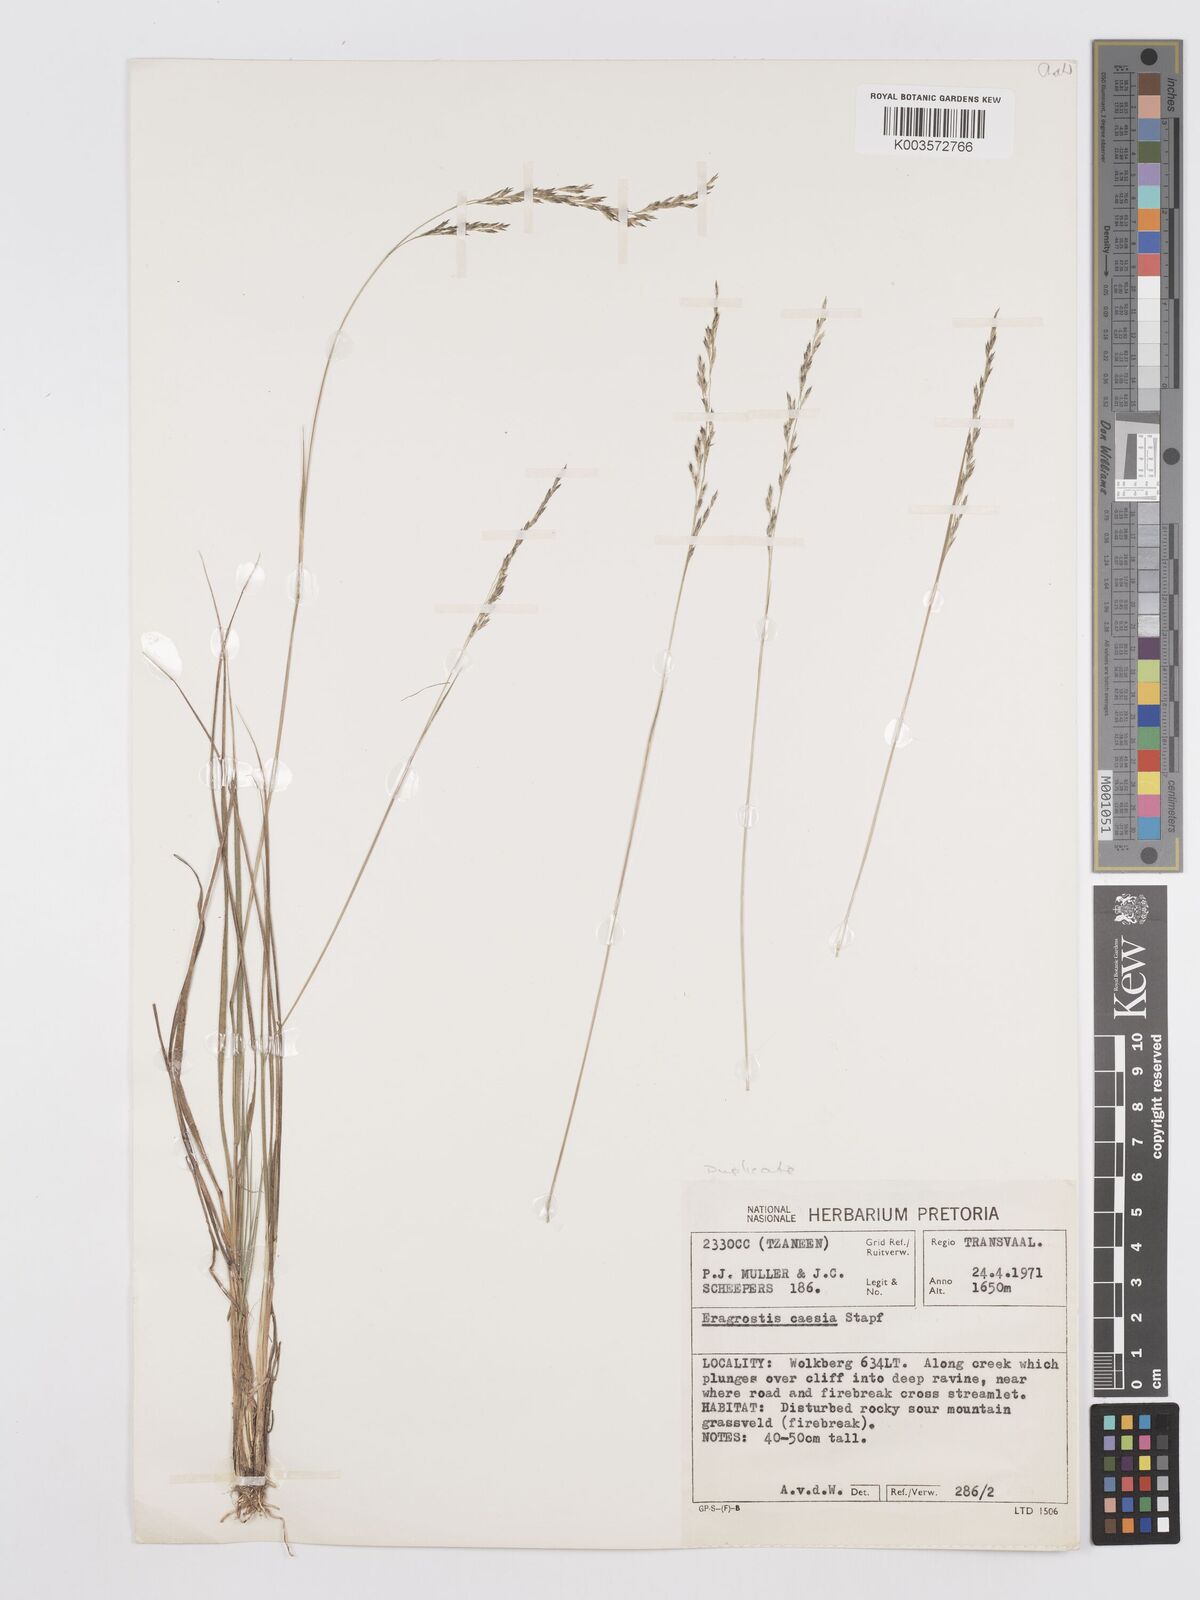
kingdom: Plantae
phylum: Tracheophyta
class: Liliopsida
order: Poales
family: Poaceae
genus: Eragrostis
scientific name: Eragrostis caesia
